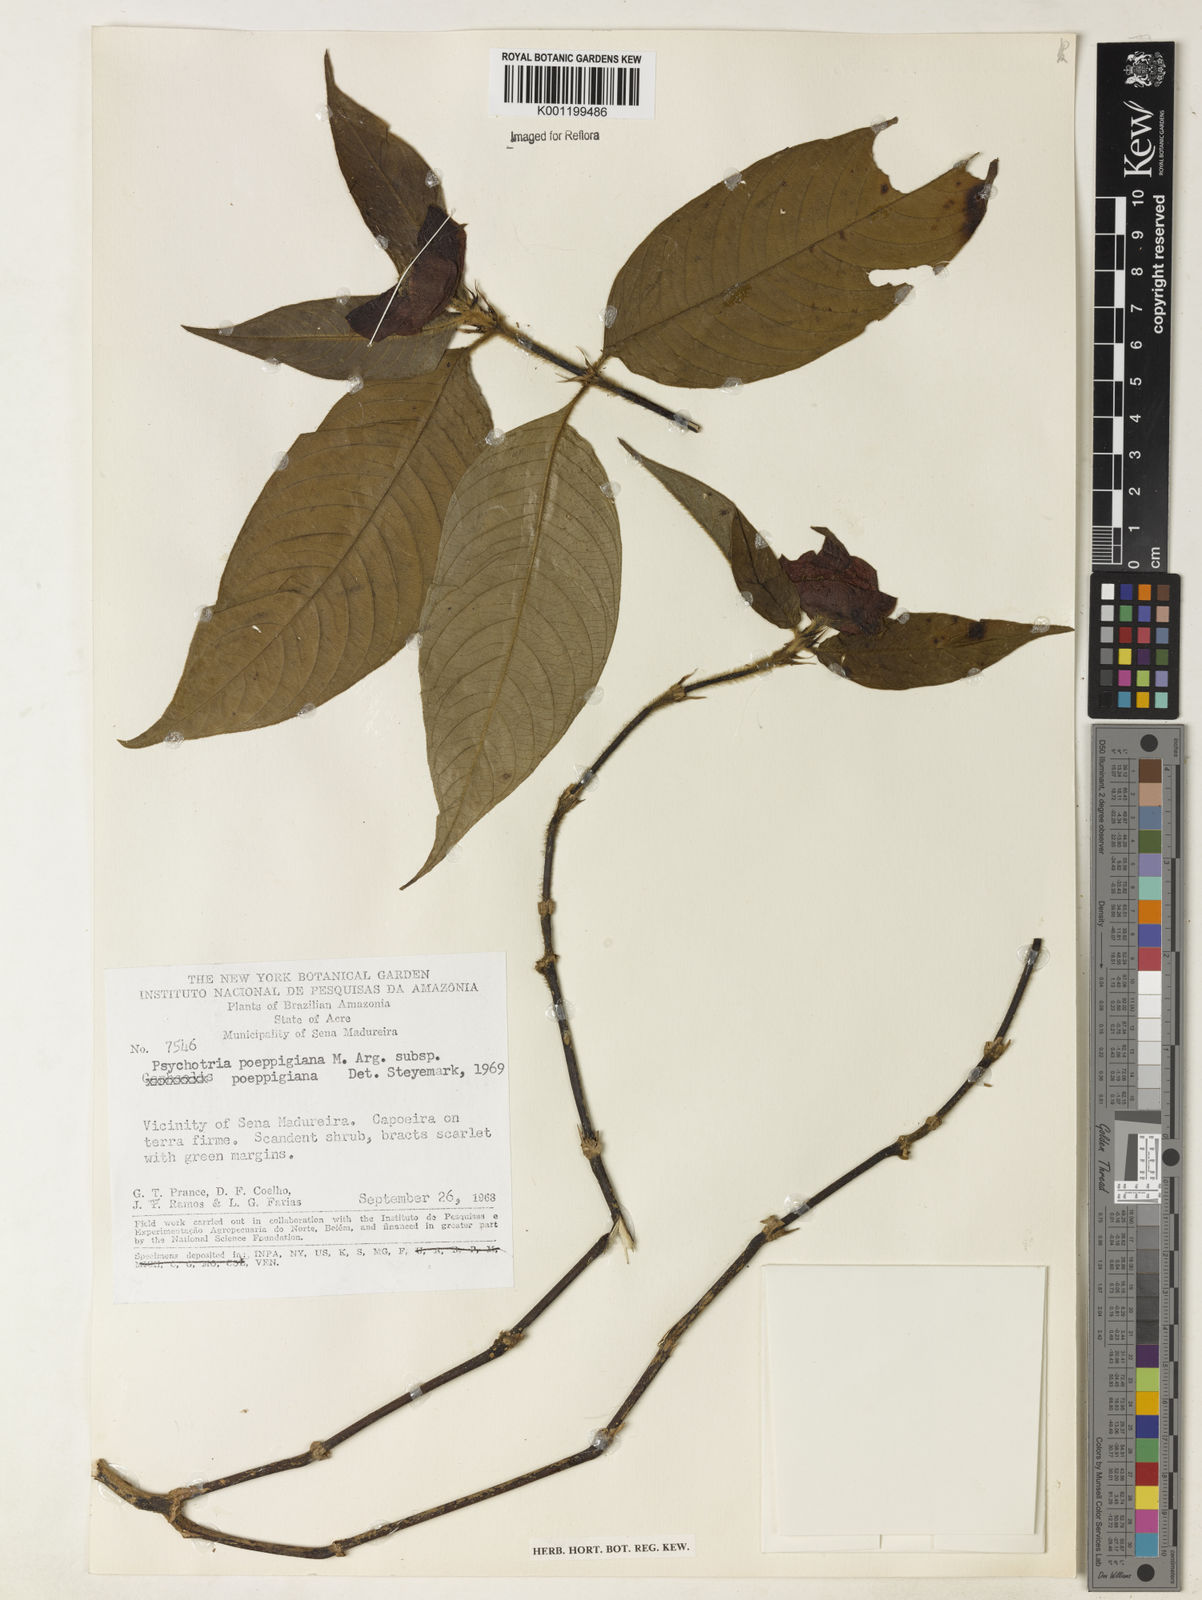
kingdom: Plantae
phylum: Tracheophyta
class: Magnoliopsida
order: Gentianales
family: Rubiaceae
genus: Psychotria
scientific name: Psychotria
